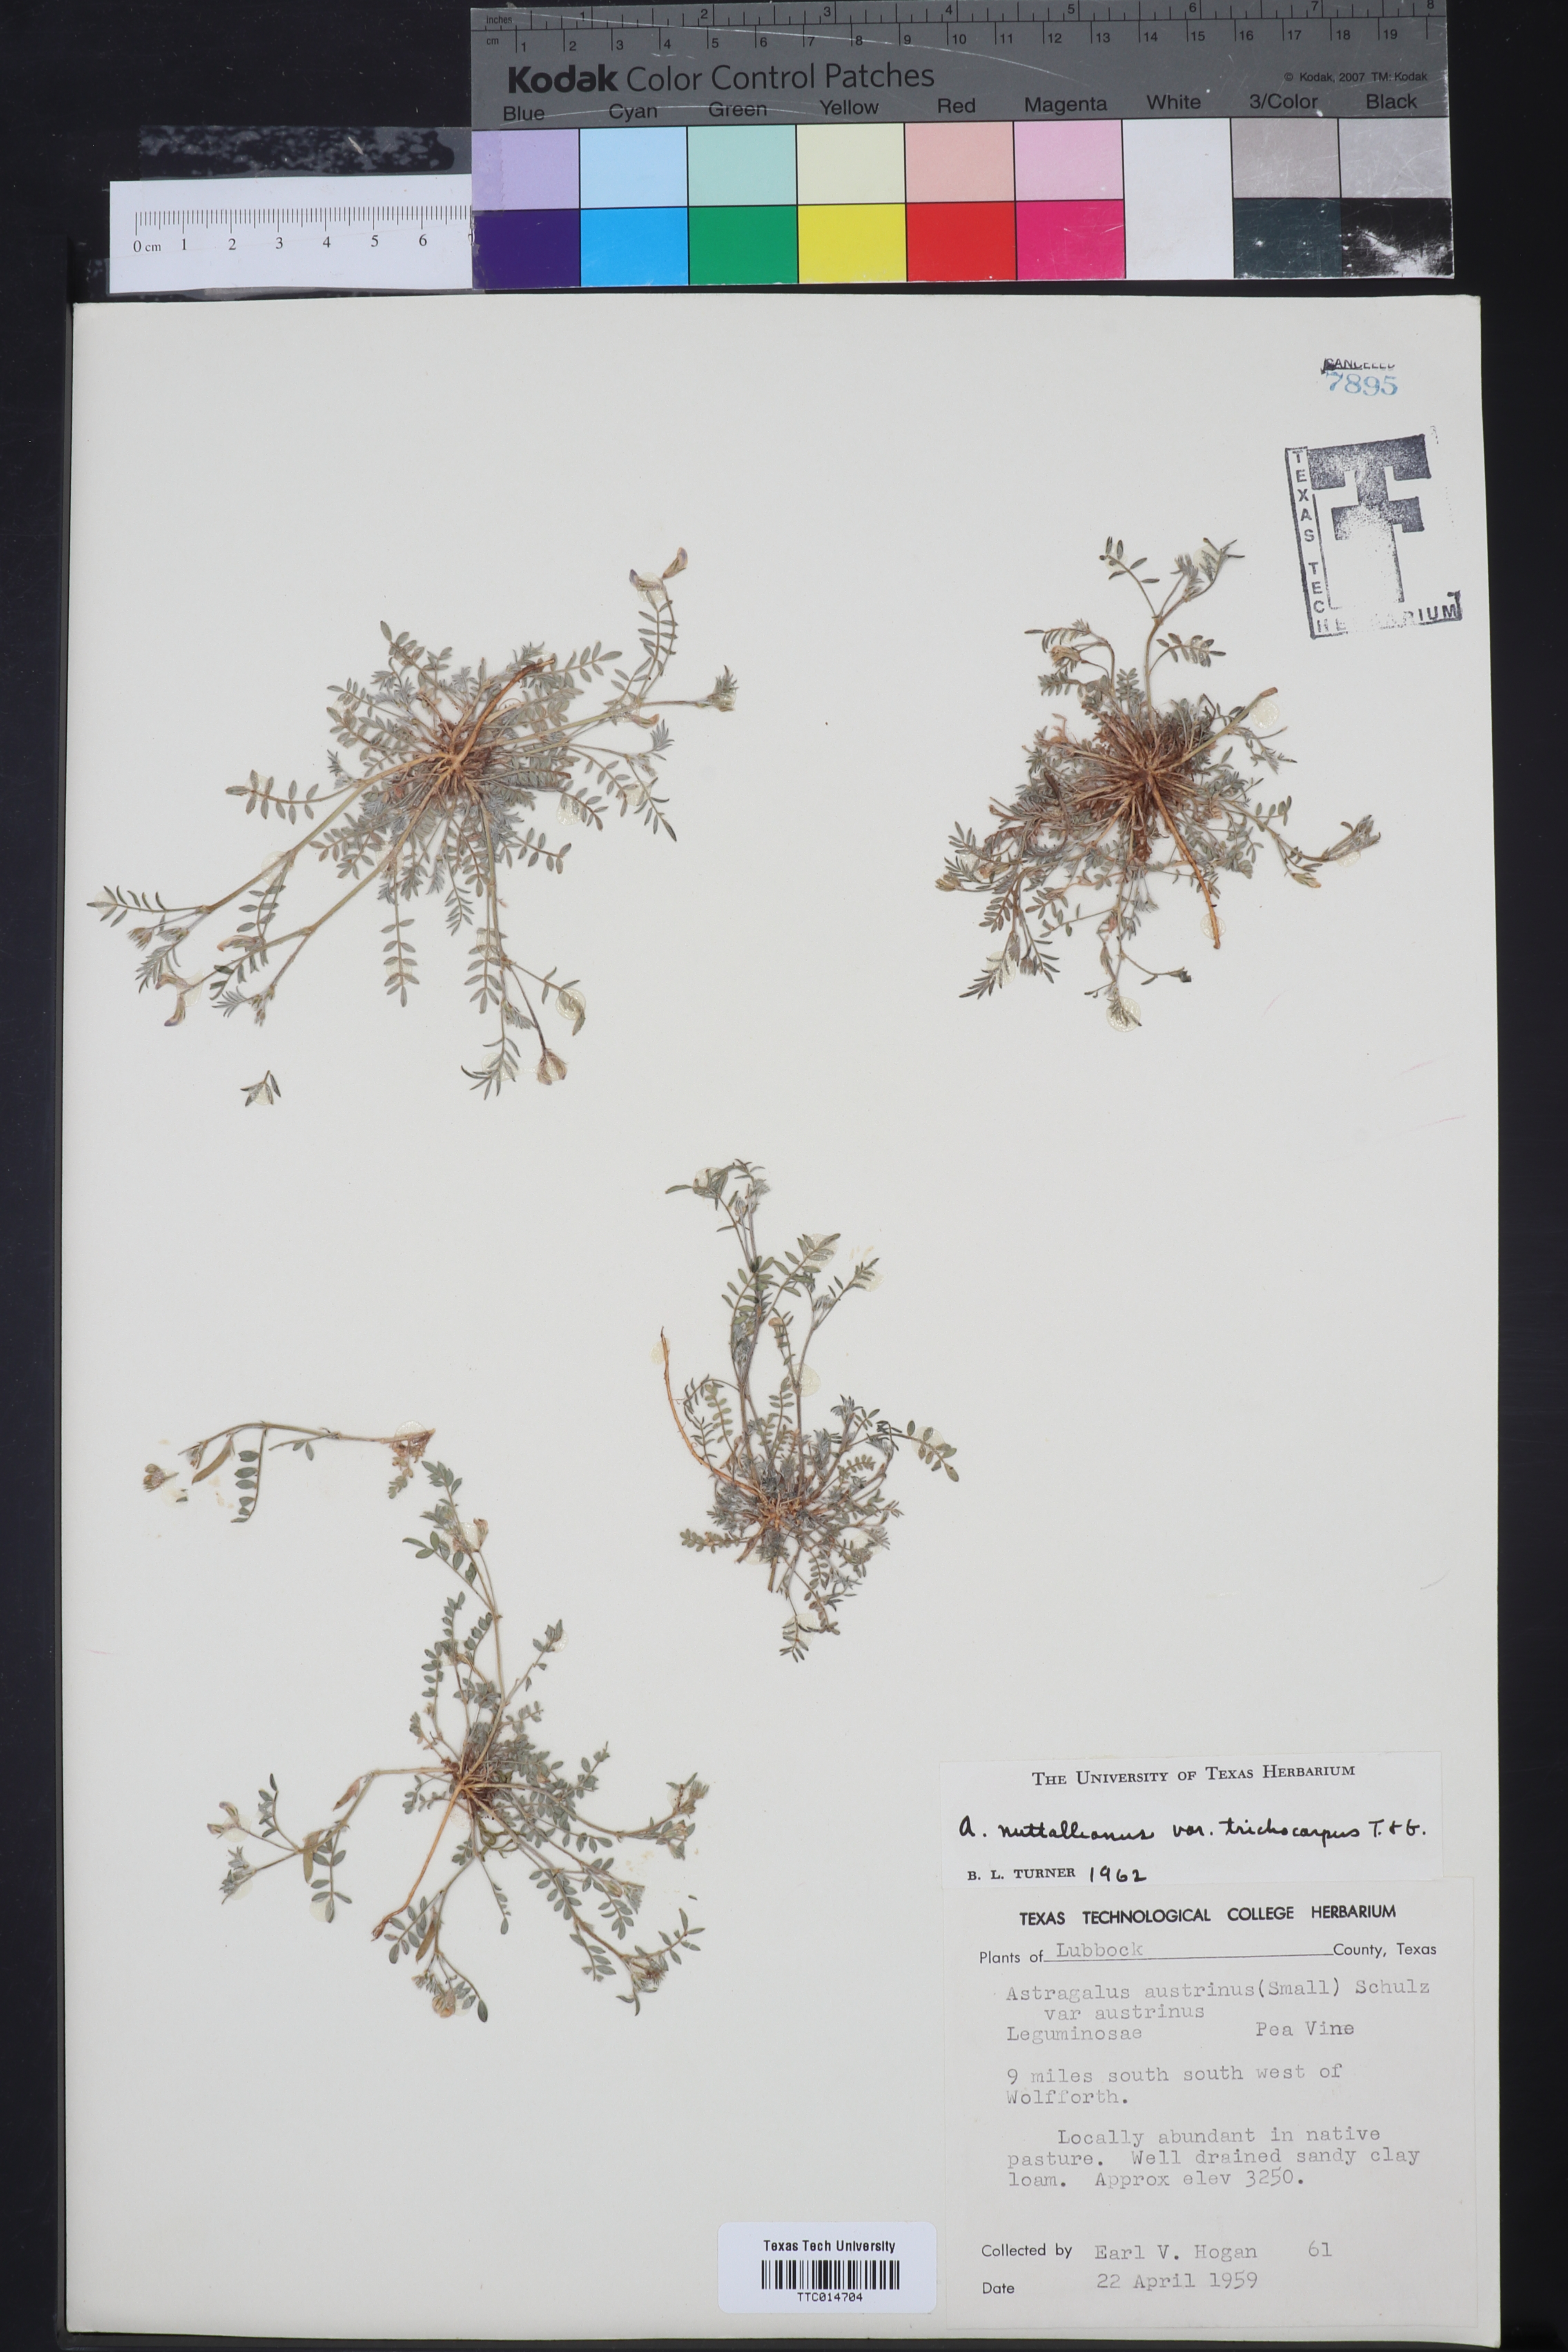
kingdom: Plantae
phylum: Tracheophyta
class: Magnoliopsida
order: Fabales
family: Fabaceae
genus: Astragalus
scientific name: Astragalus nuttallianus
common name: Smallflowered milkvetch
